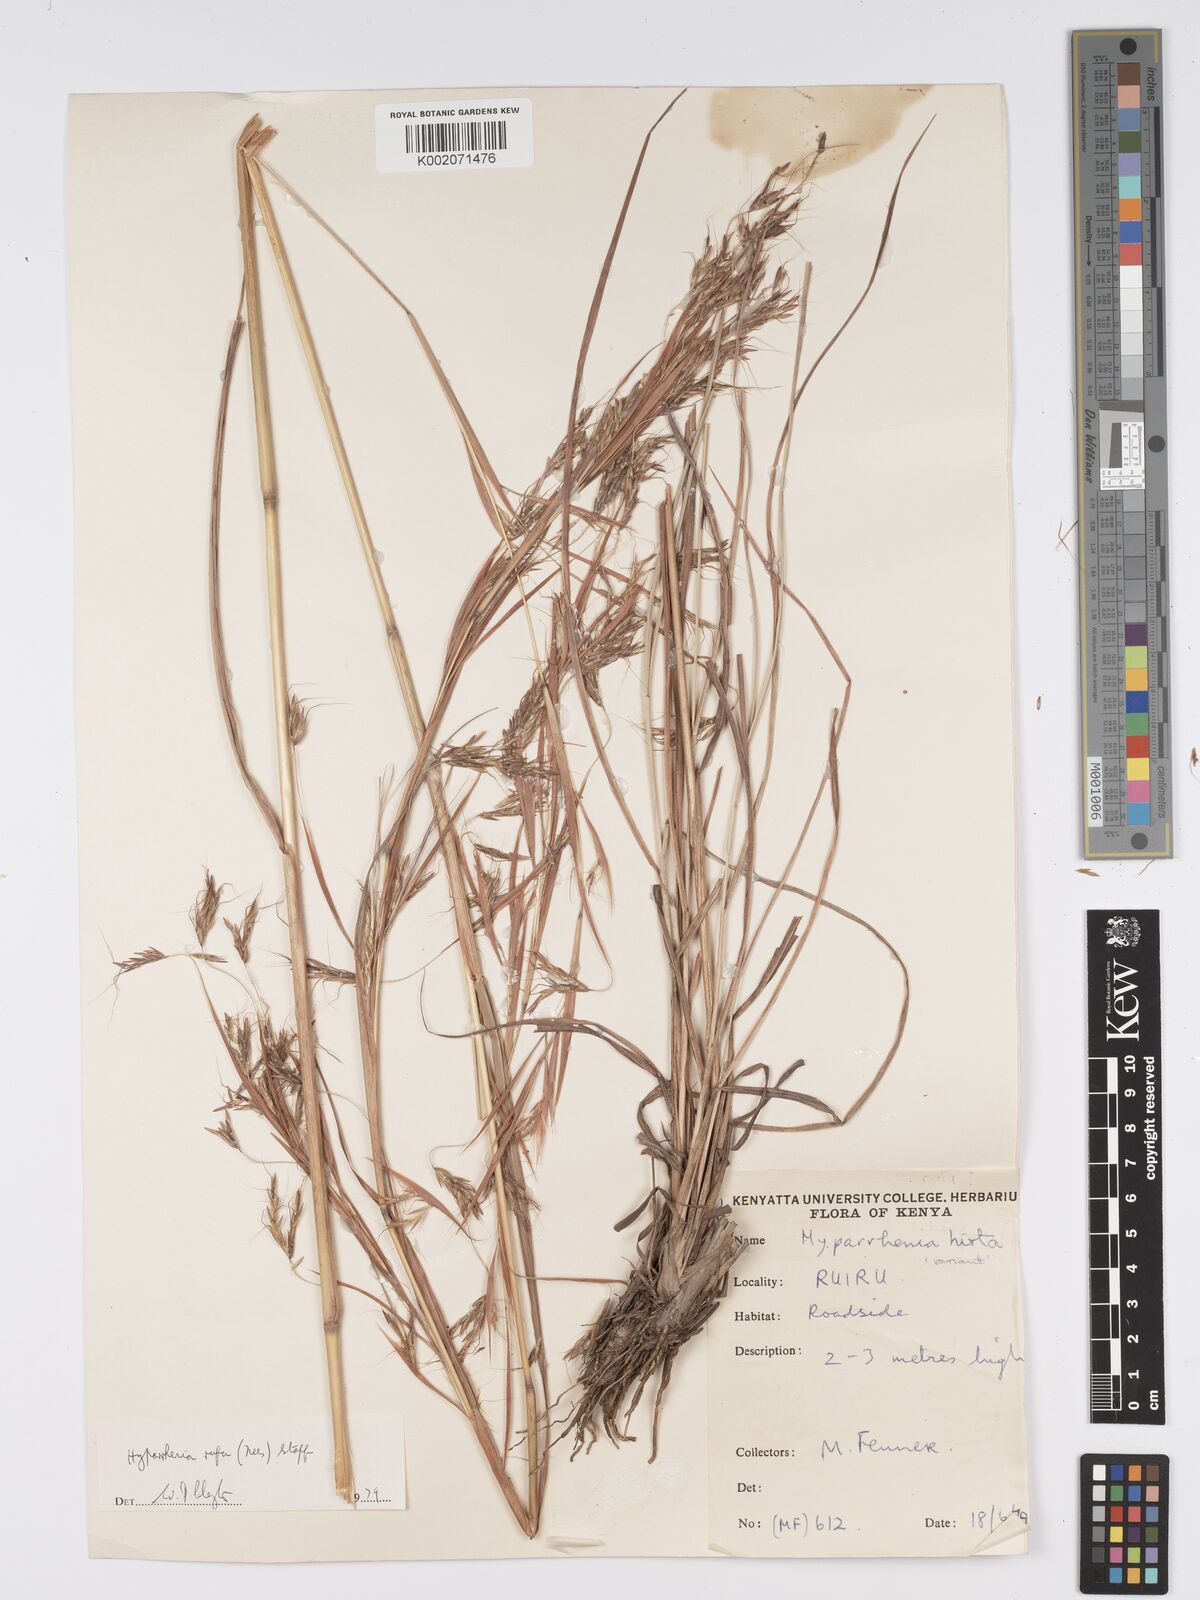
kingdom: Plantae
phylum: Tracheophyta
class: Liliopsida
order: Poales
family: Poaceae
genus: Hyparrhenia
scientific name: Hyparrhenia rufa
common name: Jaraguagrass
